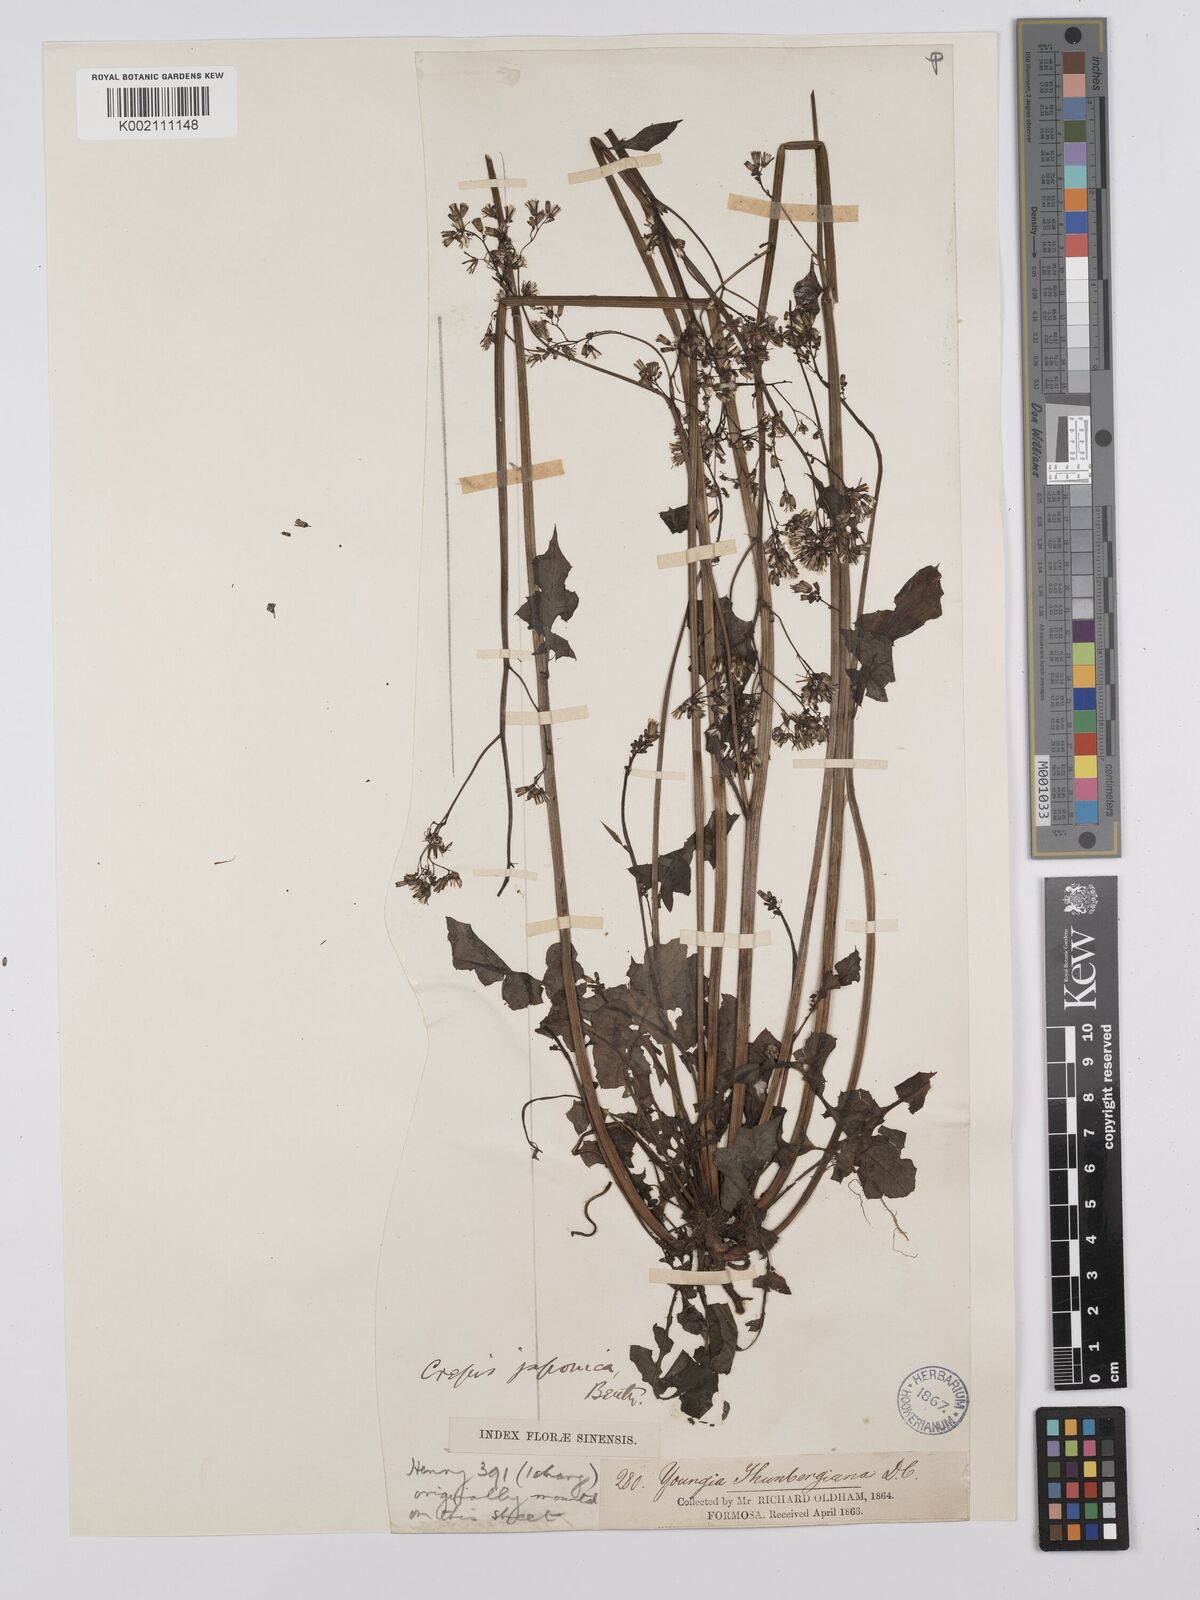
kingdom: Plantae
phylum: Tracheophyta
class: Magnoliopsida
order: Asterales
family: Asteraceae
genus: Youngia
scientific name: Youngia
